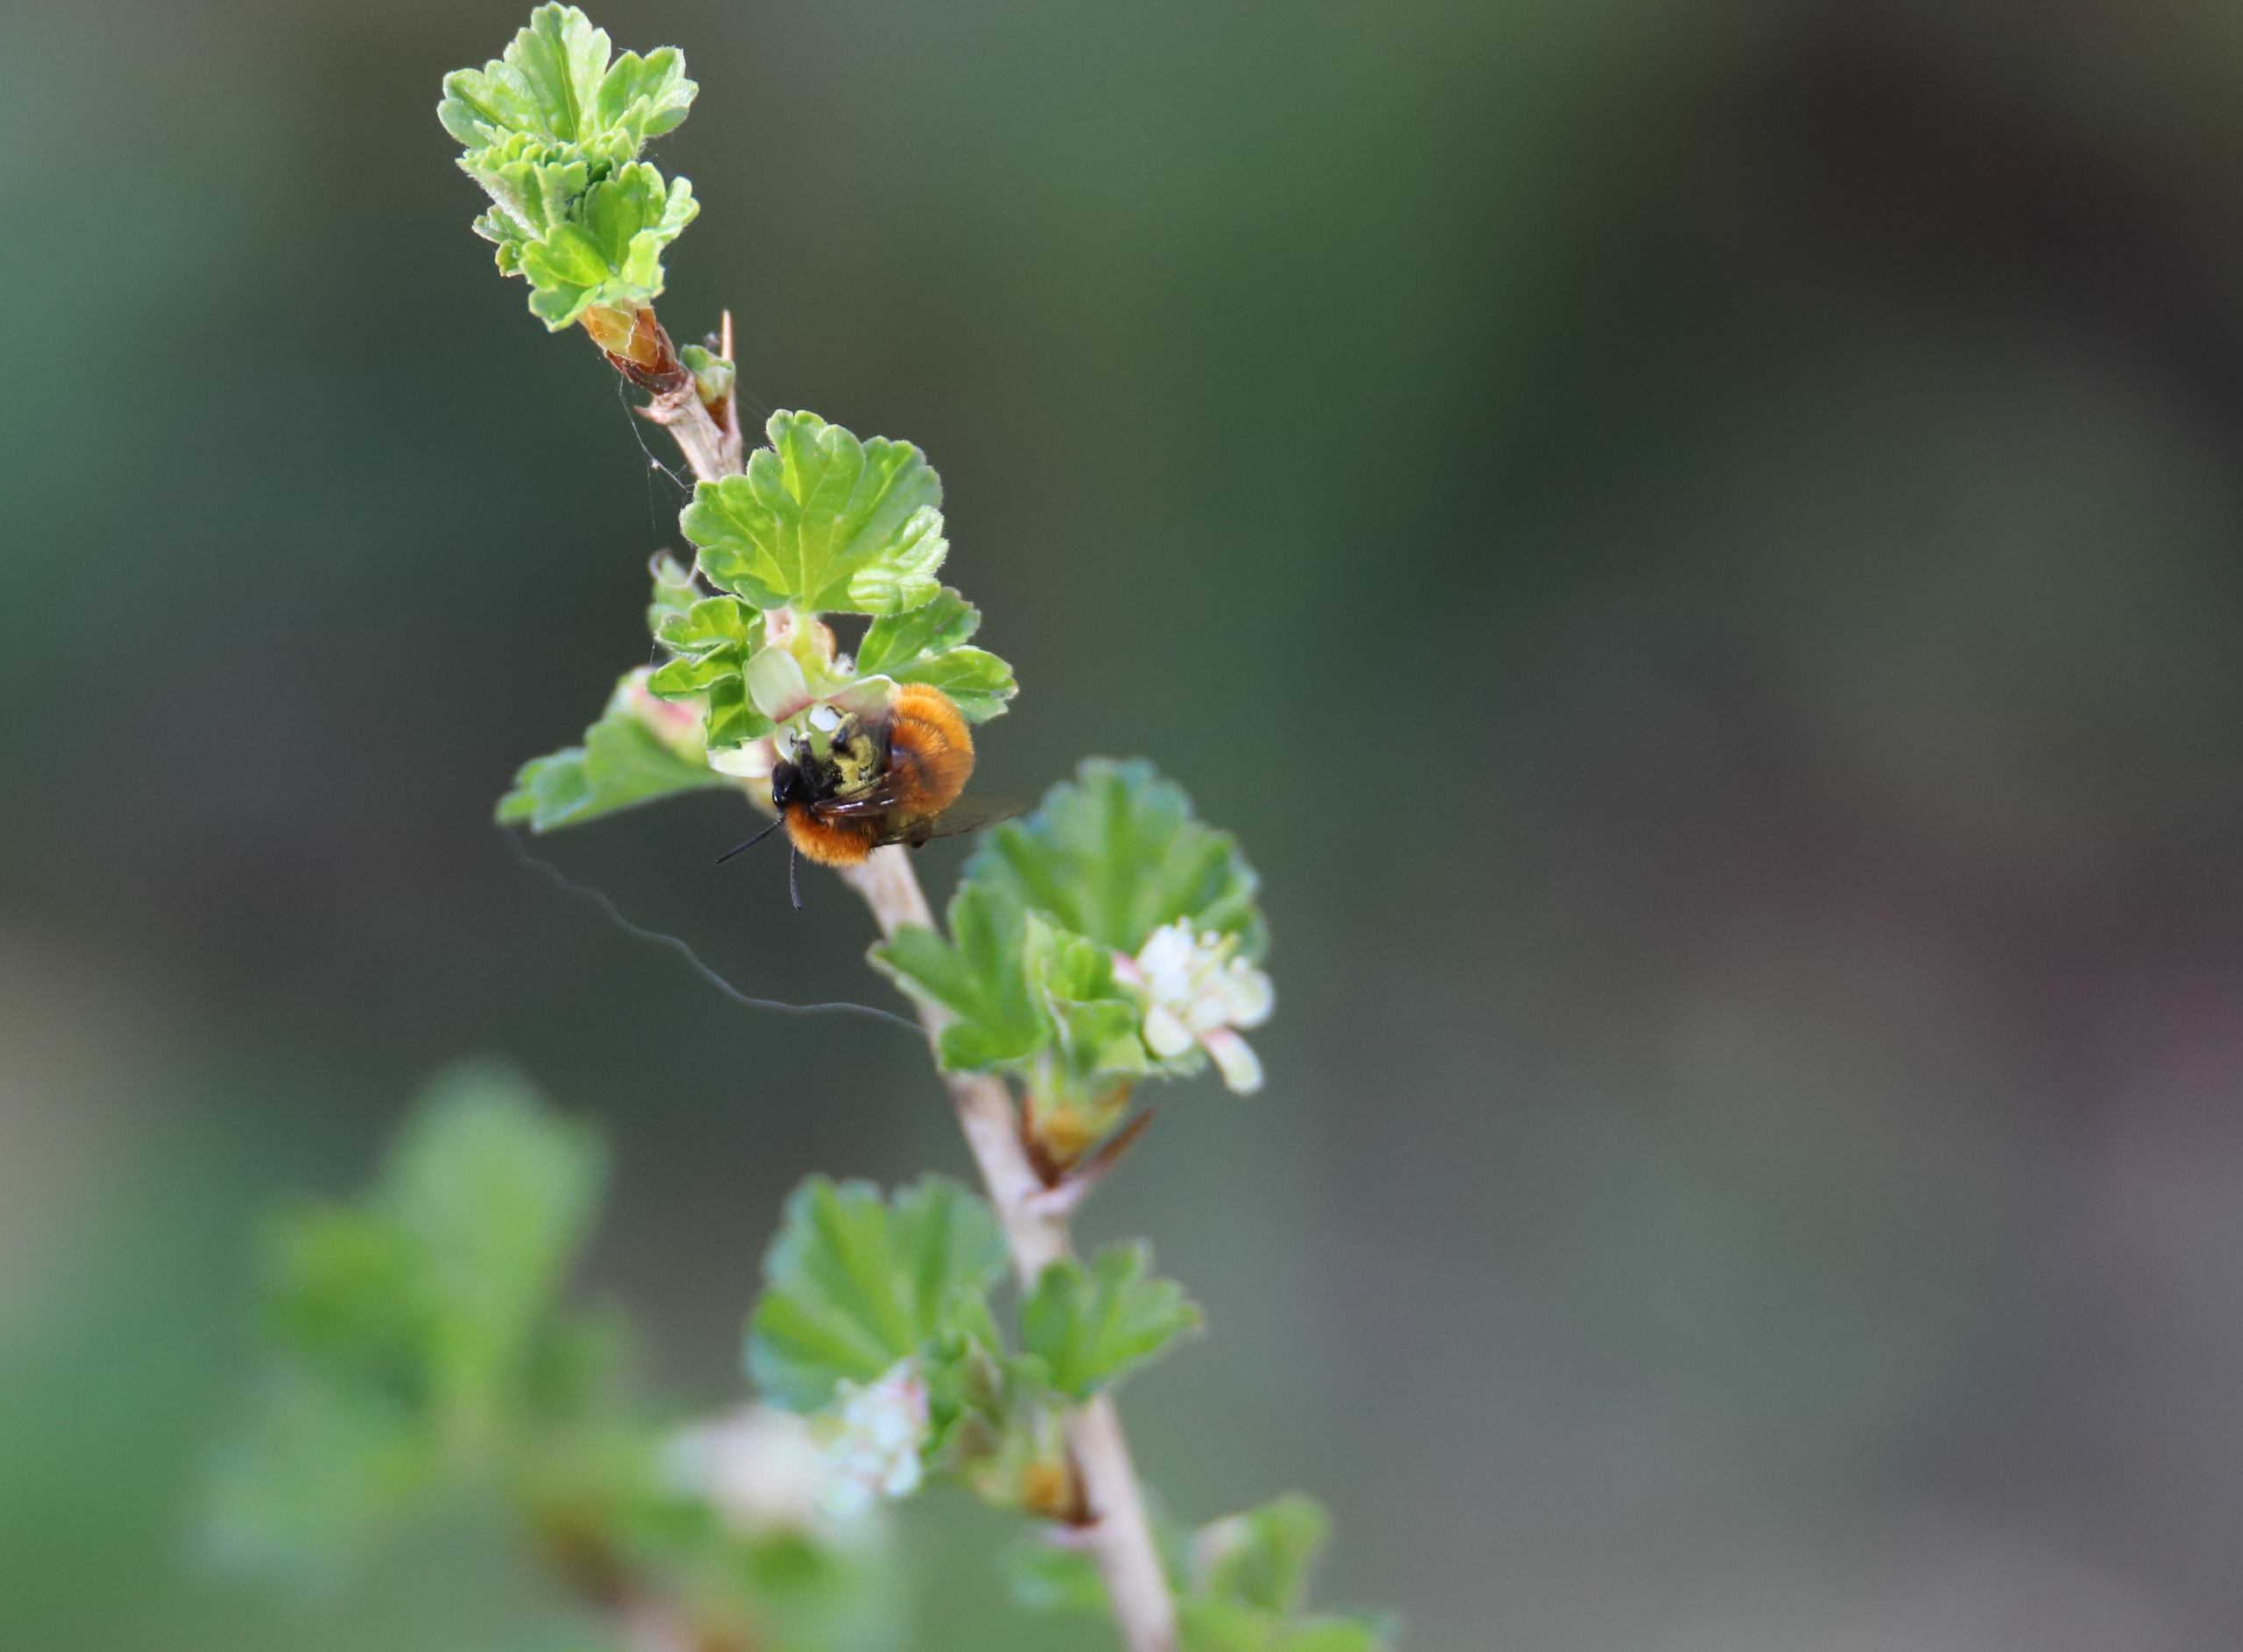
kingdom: Animalia
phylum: Arthropoda
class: Insecta
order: Hymenoptera
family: Andrenidae
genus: Andrena
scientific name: Andrena fulva
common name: Rødpelset jordbi
